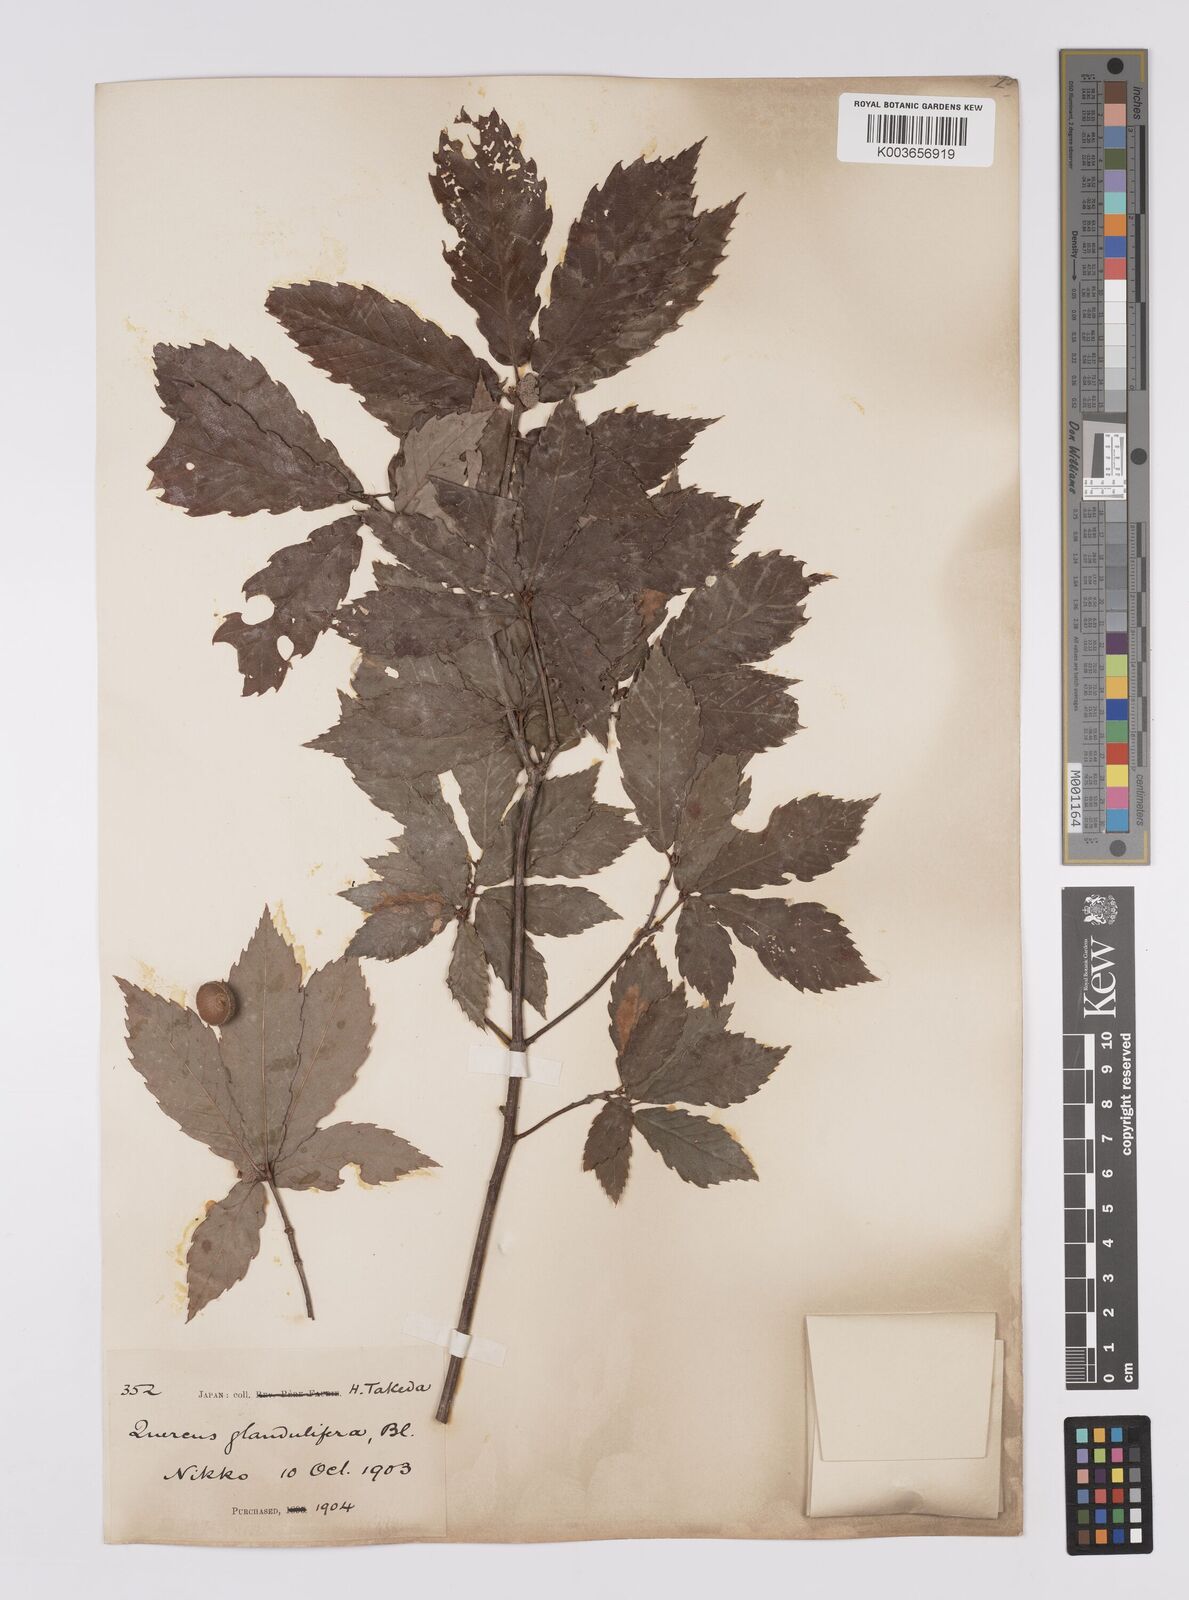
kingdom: Plantae
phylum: Tracheophyta
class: Magnoliopsida
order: Fagales
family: Fagaceae
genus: Quercus
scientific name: Quercus
